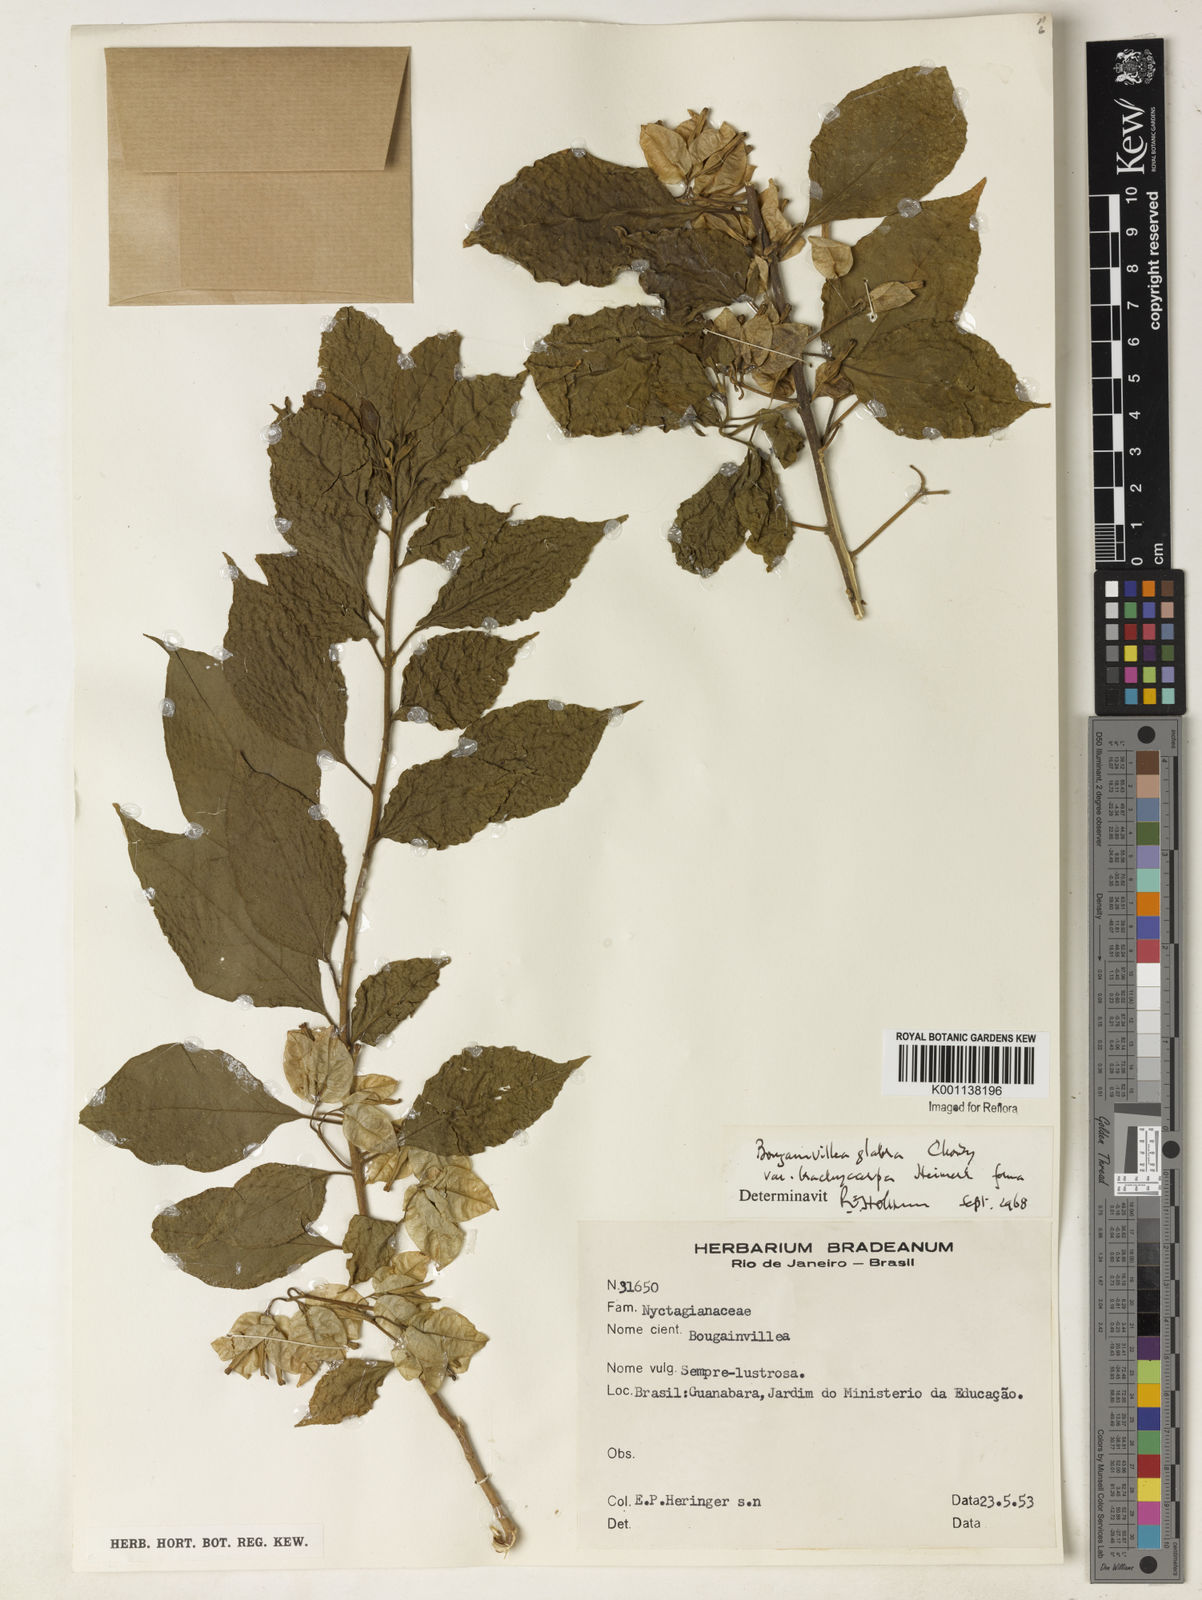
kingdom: Plantae
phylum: Tracheophyta
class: Magnoliopsida
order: Caryophyllales
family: Nyctaginaceae
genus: Bougainvillea
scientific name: Bougainvillea glabra
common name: Paperflower
